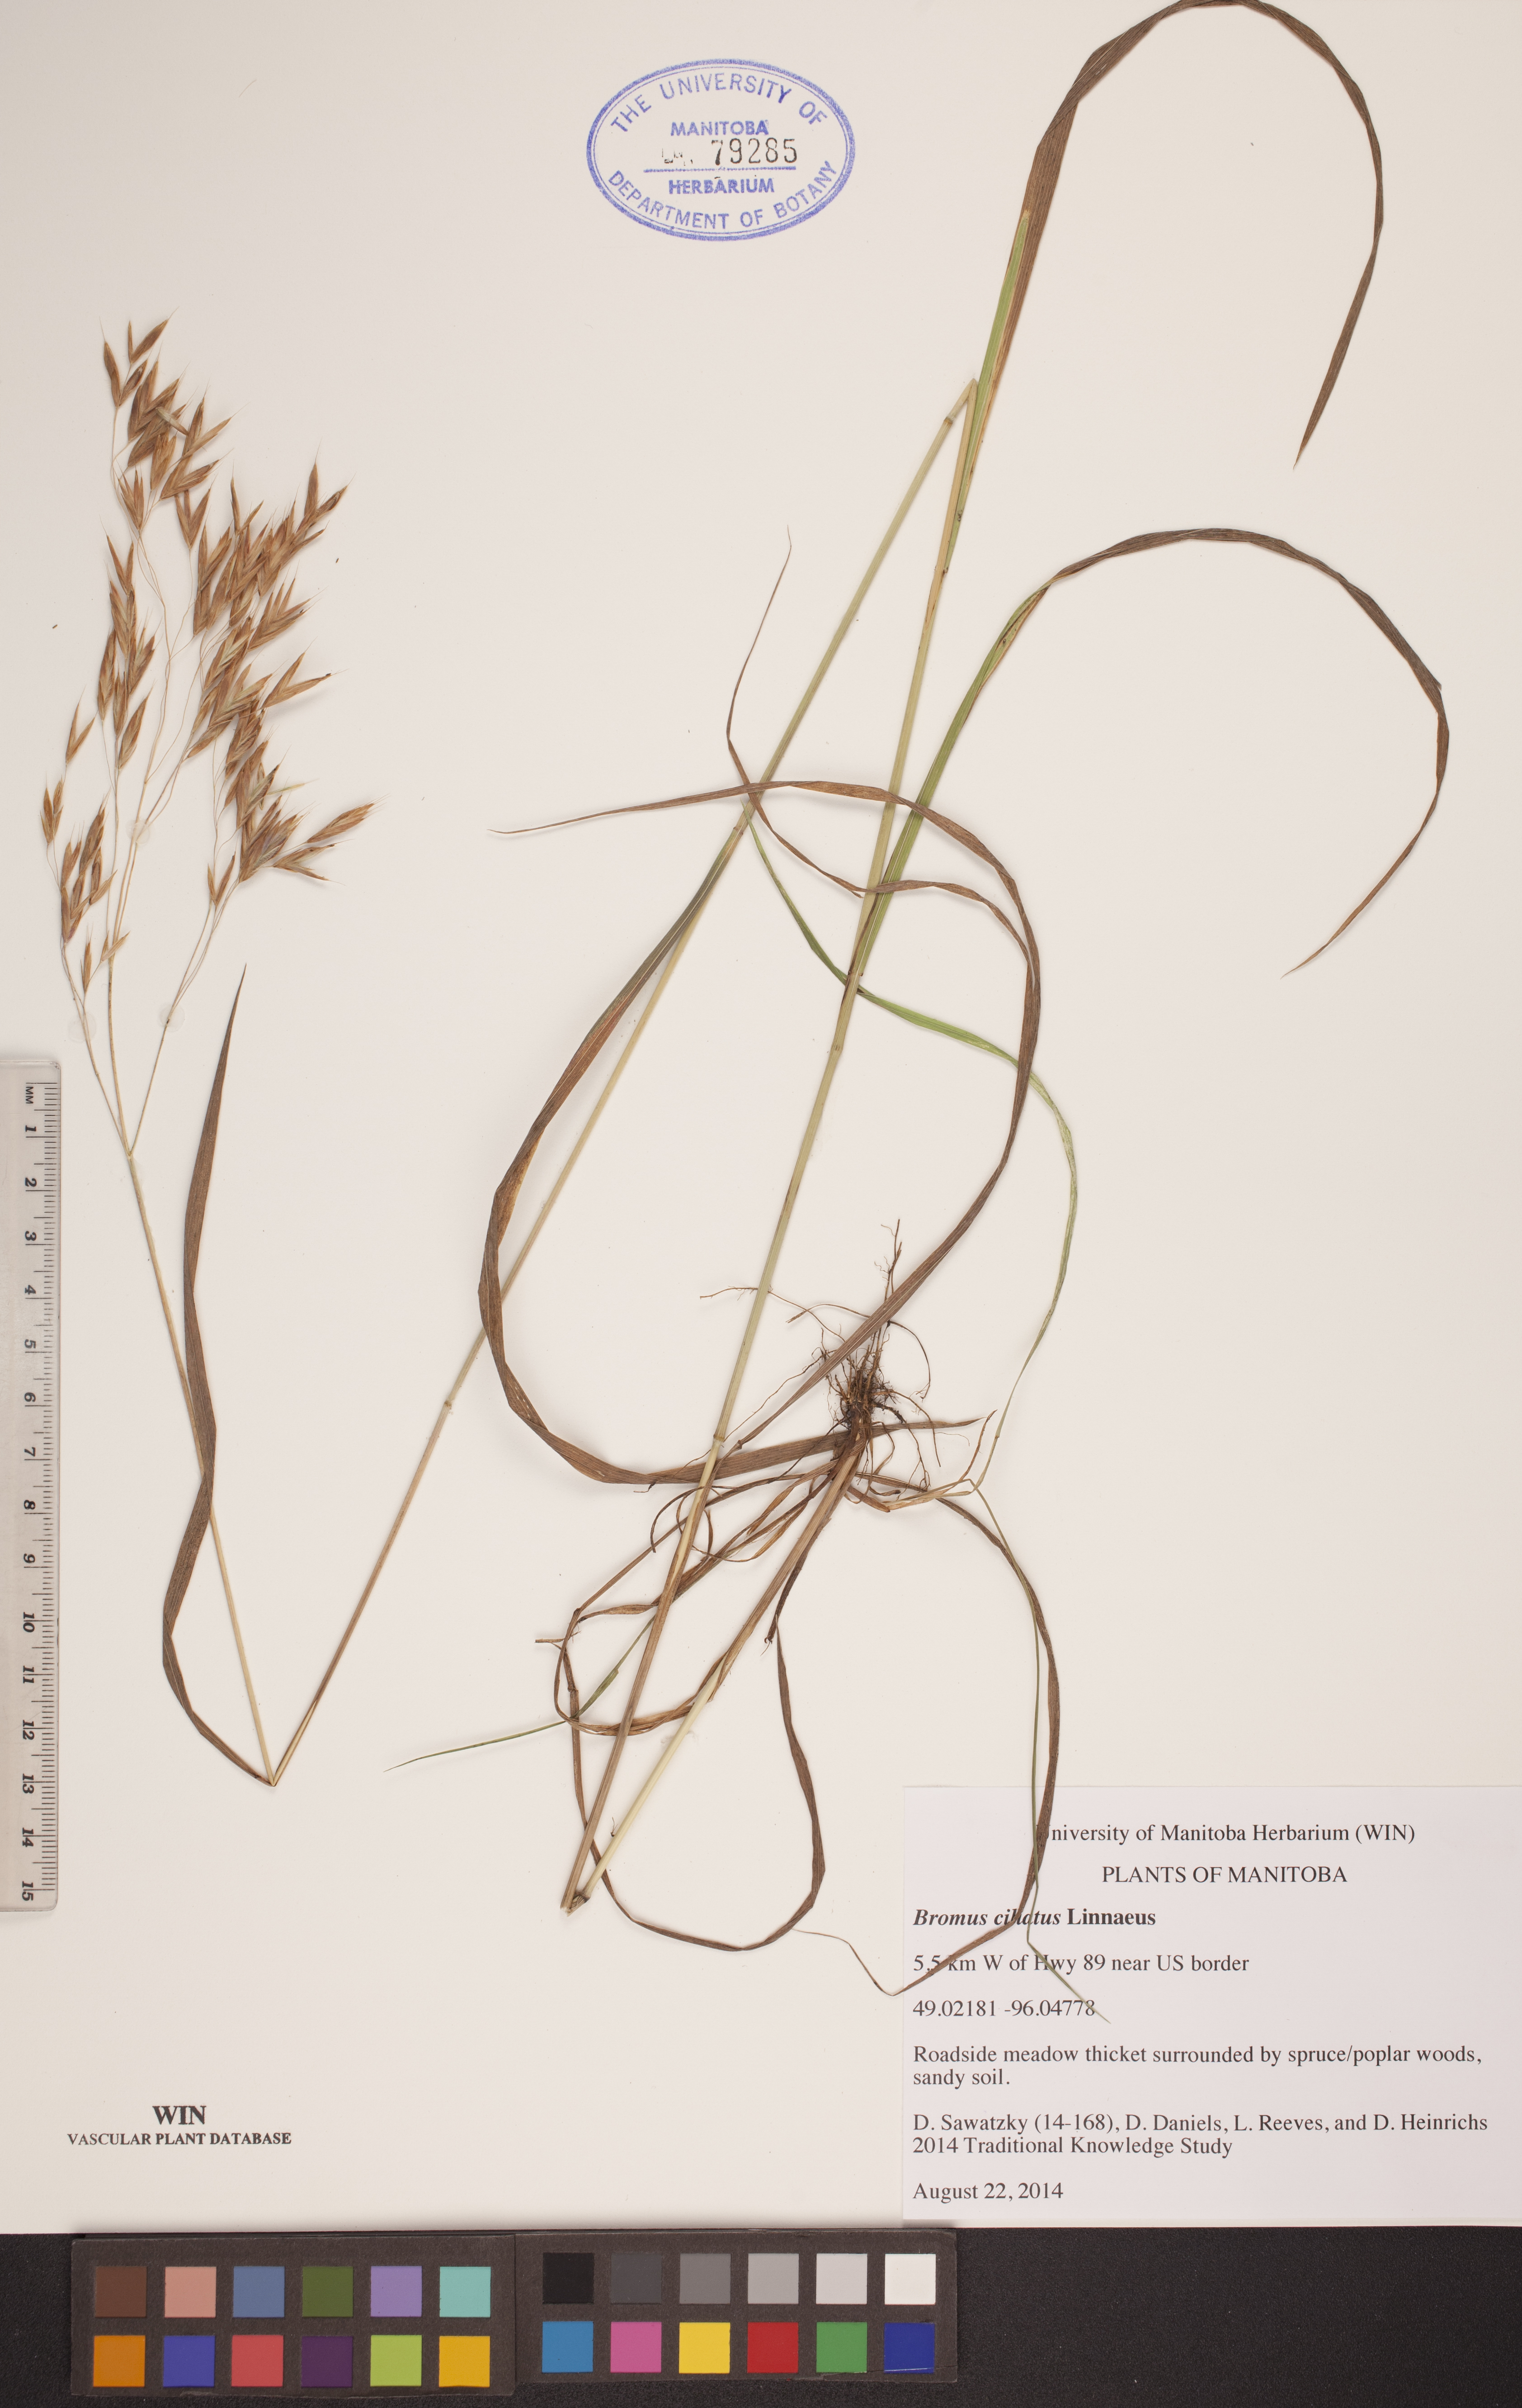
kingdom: Plantae
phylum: Tracheophyta
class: Liliopsida
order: Poales
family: Poaceae
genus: Bromus
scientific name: Bromus ciliatus
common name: Fringe brome
